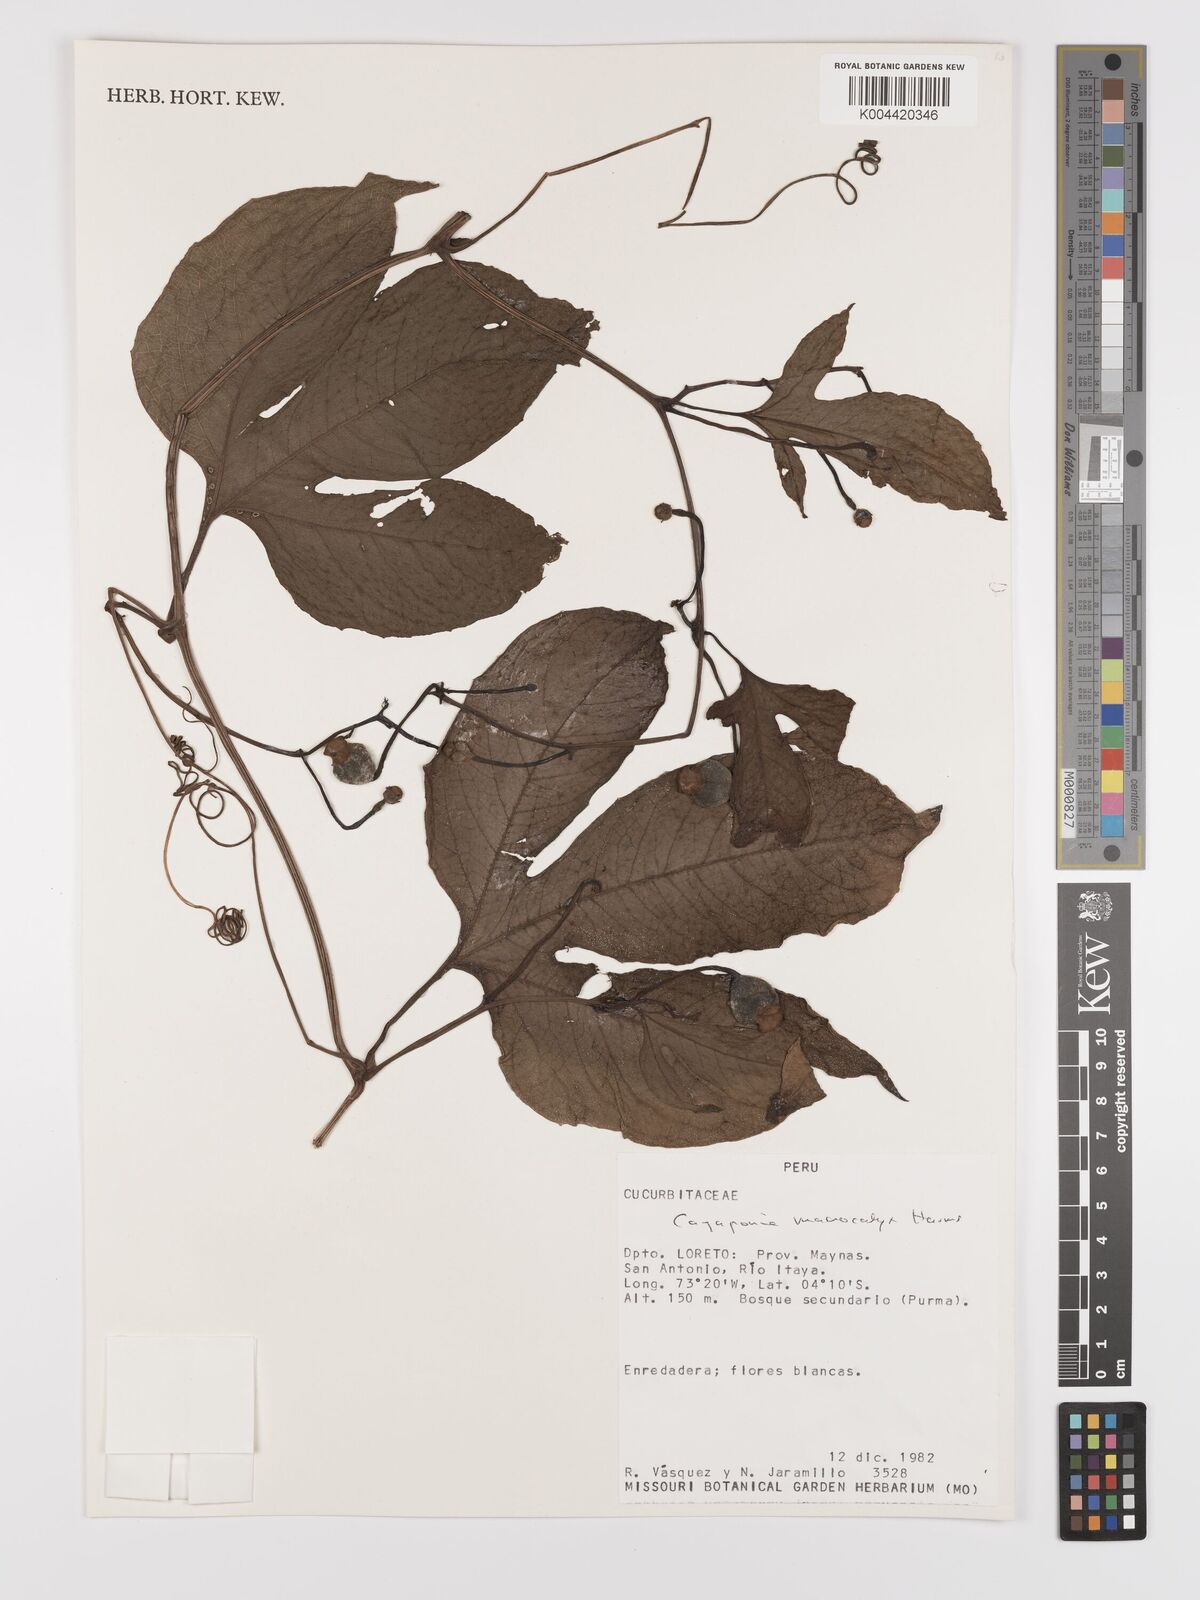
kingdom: Plantae
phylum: Tracheophyta
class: Magnoliopsida
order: Cucurbitales
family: Cucurbitaceae
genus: Cayaponia
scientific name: Cayaponia macrocalyx
